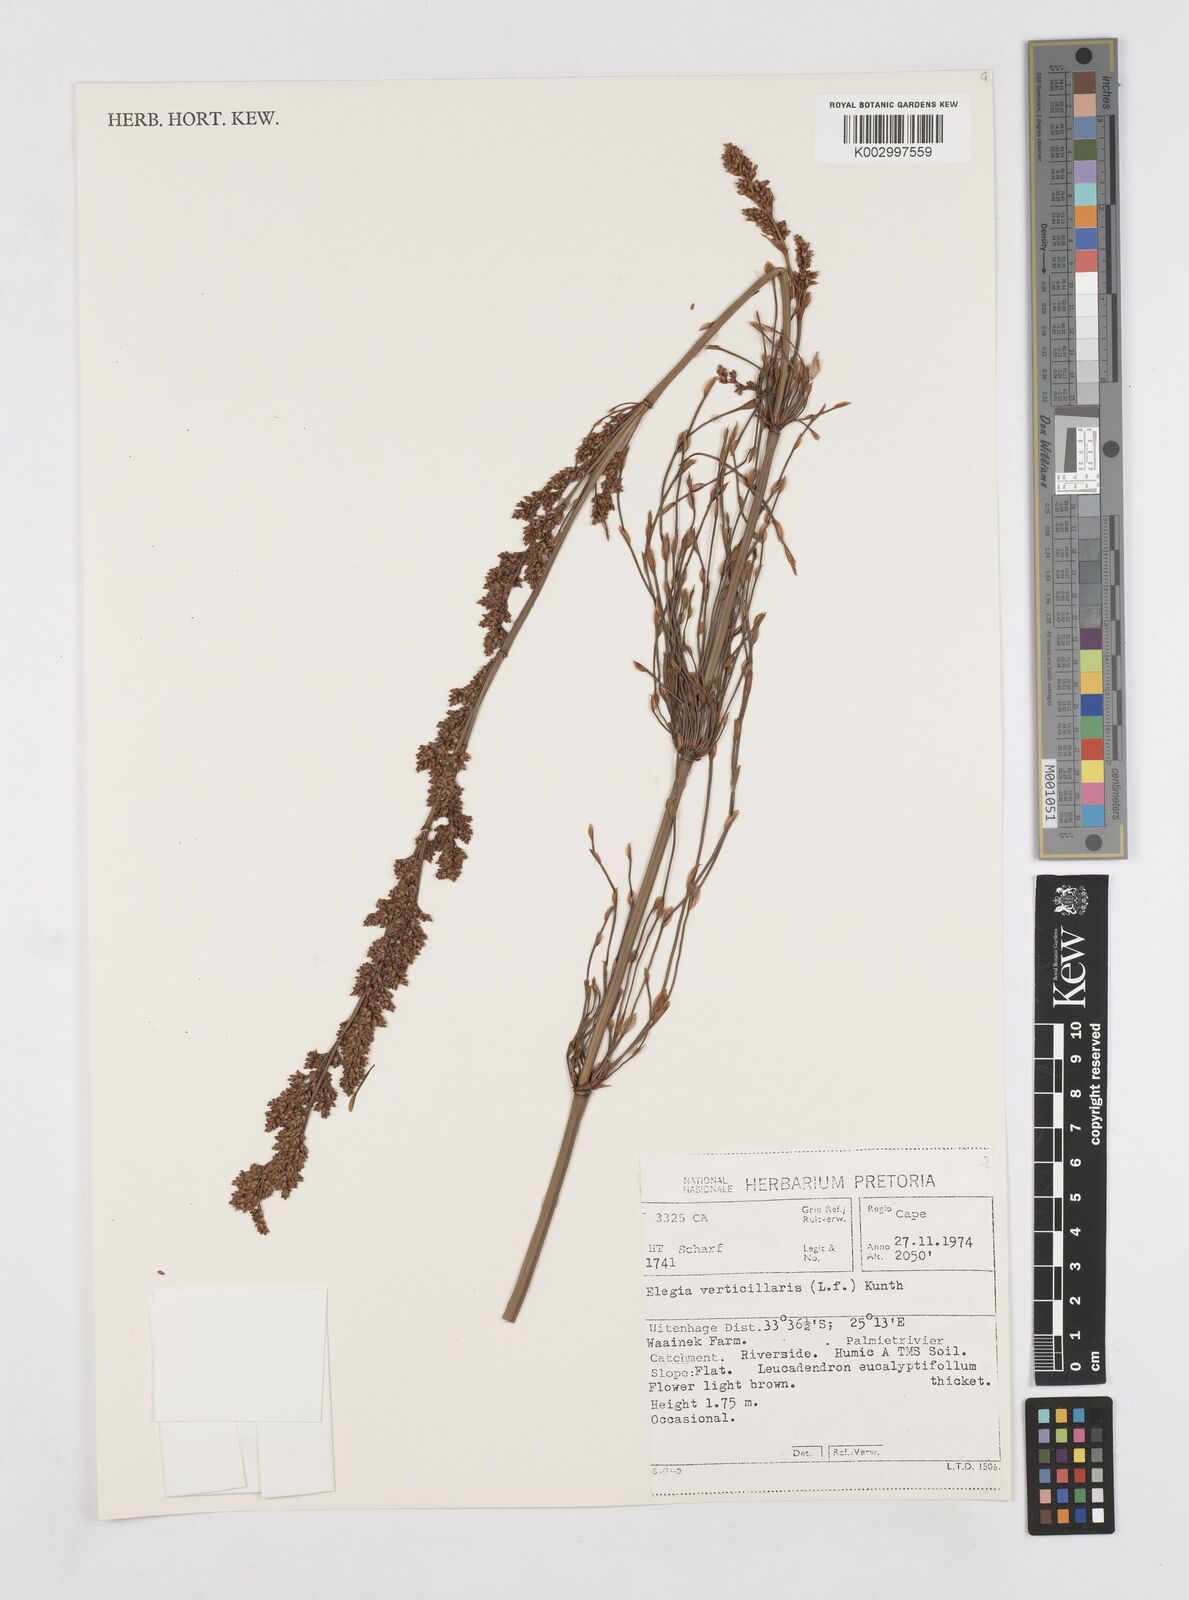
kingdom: Plantae
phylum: Tracheophyta
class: Liliopsida
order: Poales
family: Restionaceae
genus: Elegia
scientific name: Elegia capensis
